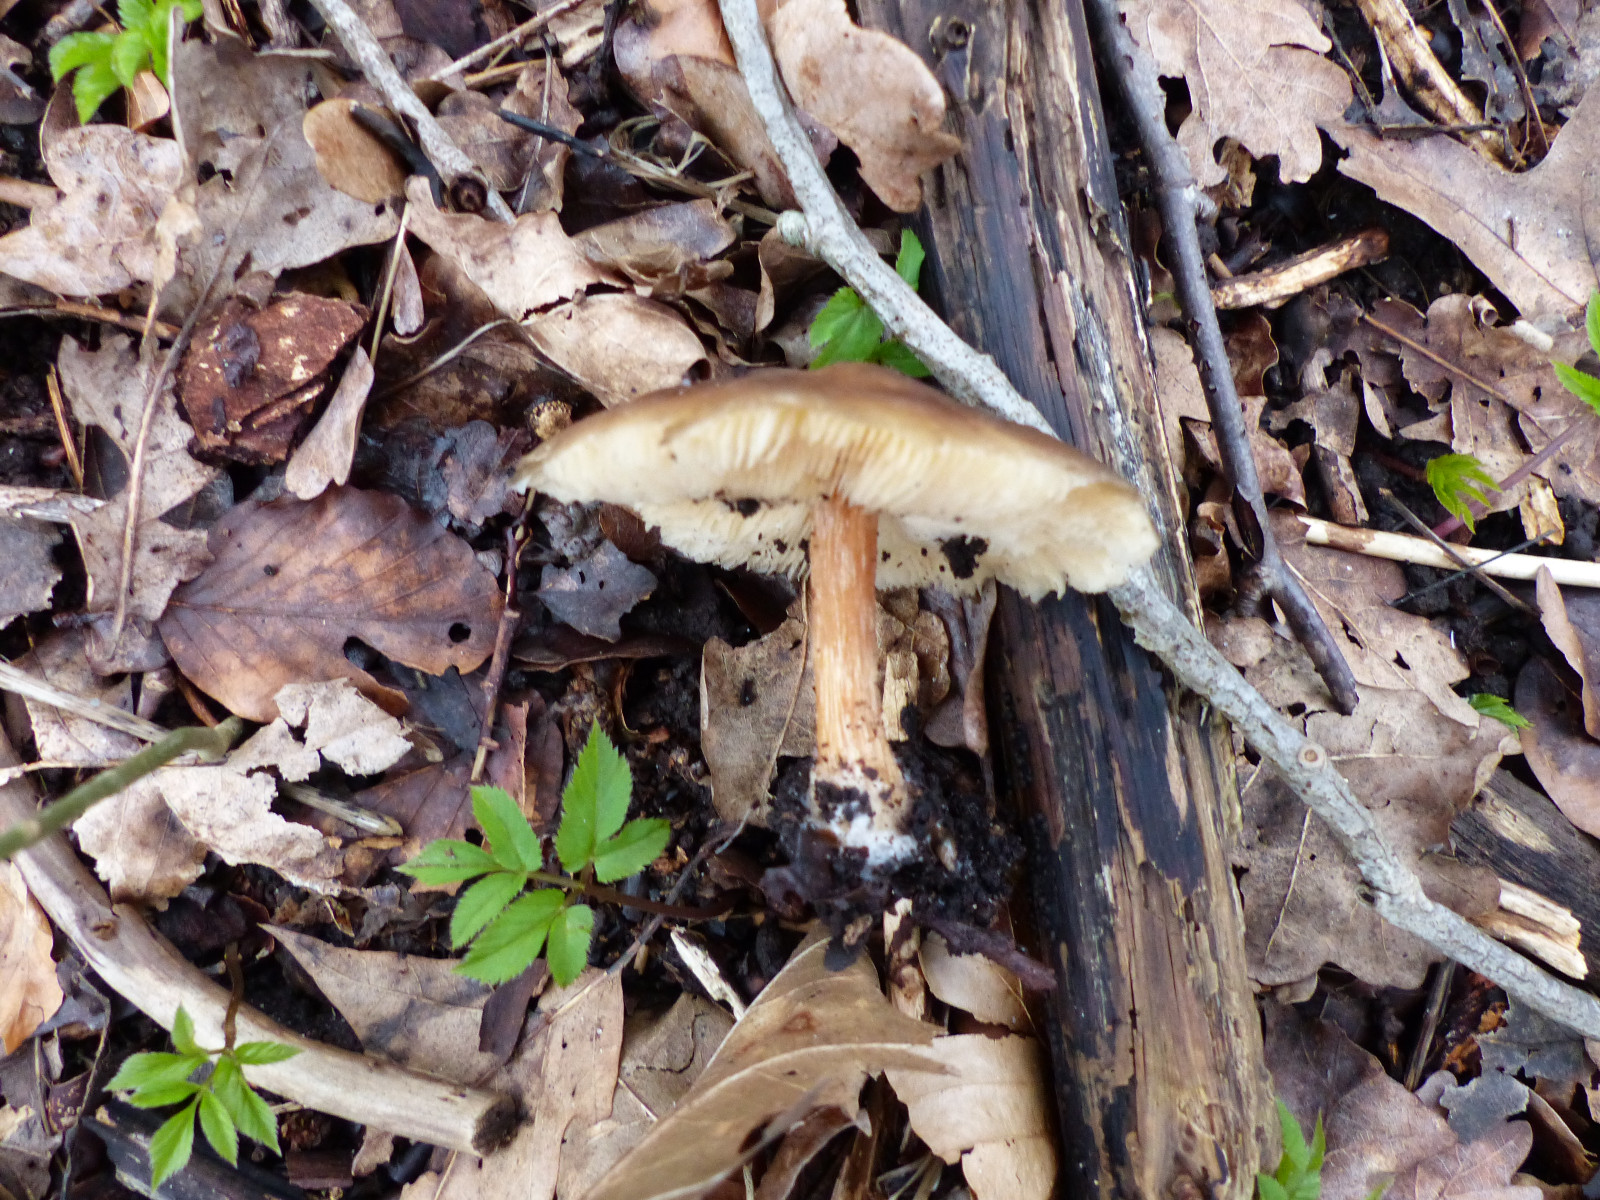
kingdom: Fungi
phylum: Basidiomycota
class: Agaricomycetes
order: Agaricales
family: Tricholomataceae
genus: Melanoleuca
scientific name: Melanoleuca cognata
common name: gyldengrå munkehat
